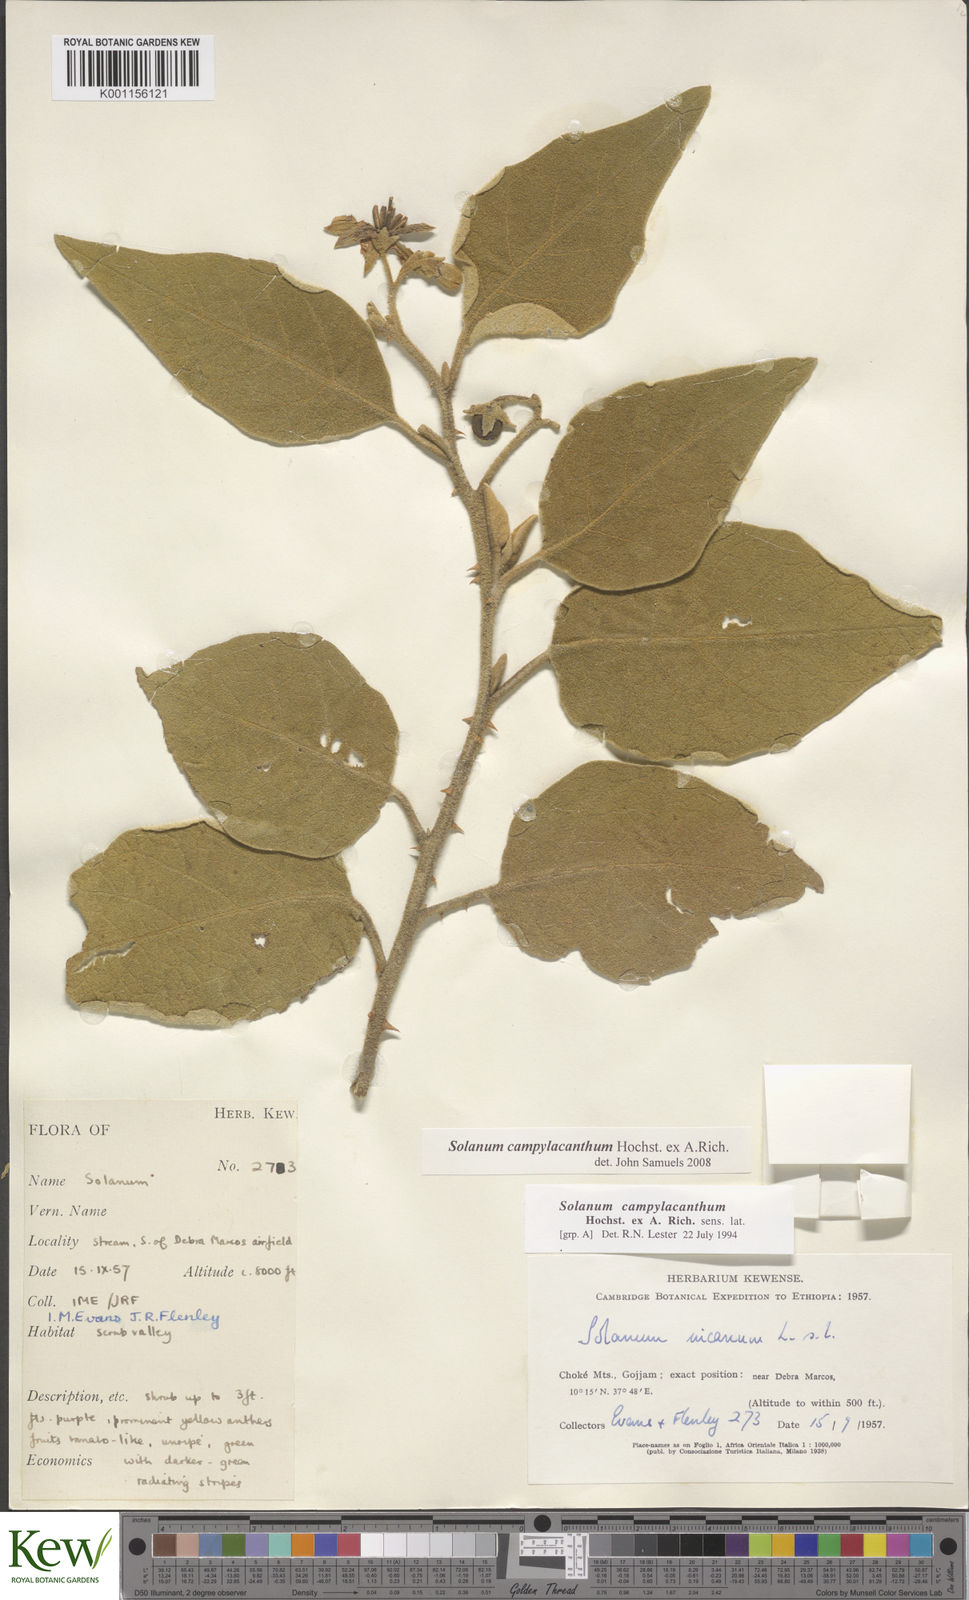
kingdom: Plantae
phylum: Tracheophyta
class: Magnoliopsida
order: Solanales
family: Solanaceae
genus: Solanum
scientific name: Solanum campylacanthum
